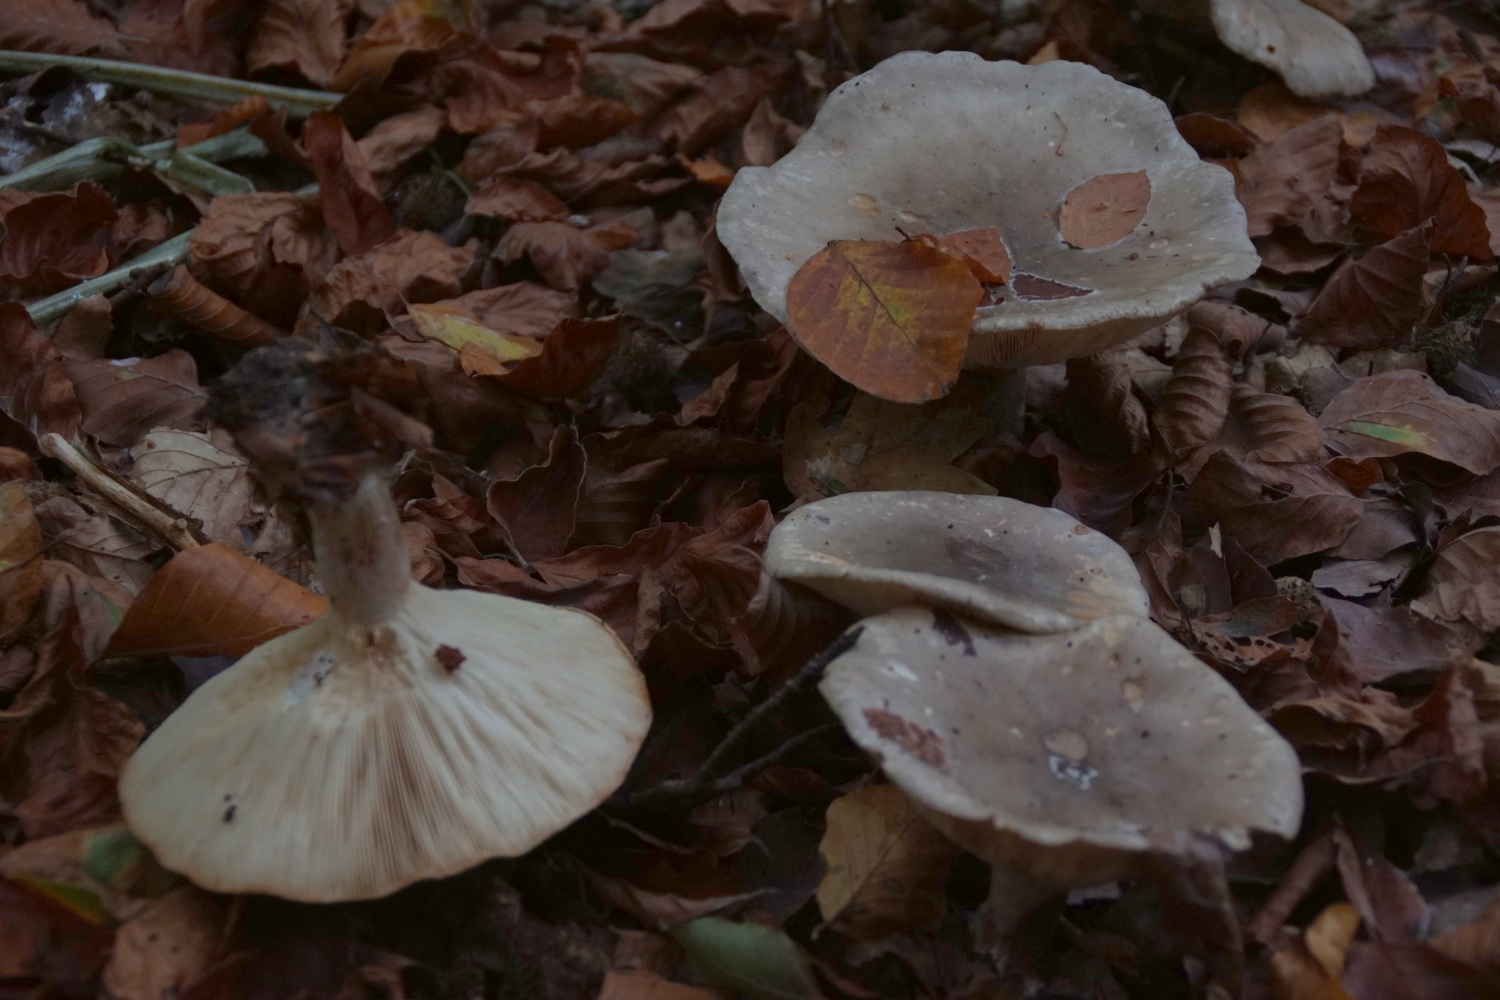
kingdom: Fungi
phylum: Basidiomycota
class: Agaricomycetes
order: Agaricales
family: Tricholomataceae
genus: Clitocybe
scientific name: Clitocybe nebularis
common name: tåge-tragthat
